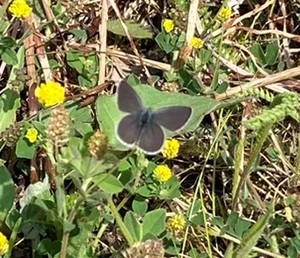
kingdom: Animalia
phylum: Arthropoda
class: Insecta
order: Lepidoptera
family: Lycaenidae
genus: Cupido
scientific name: Cupido minimus
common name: Dværgblåfugl
